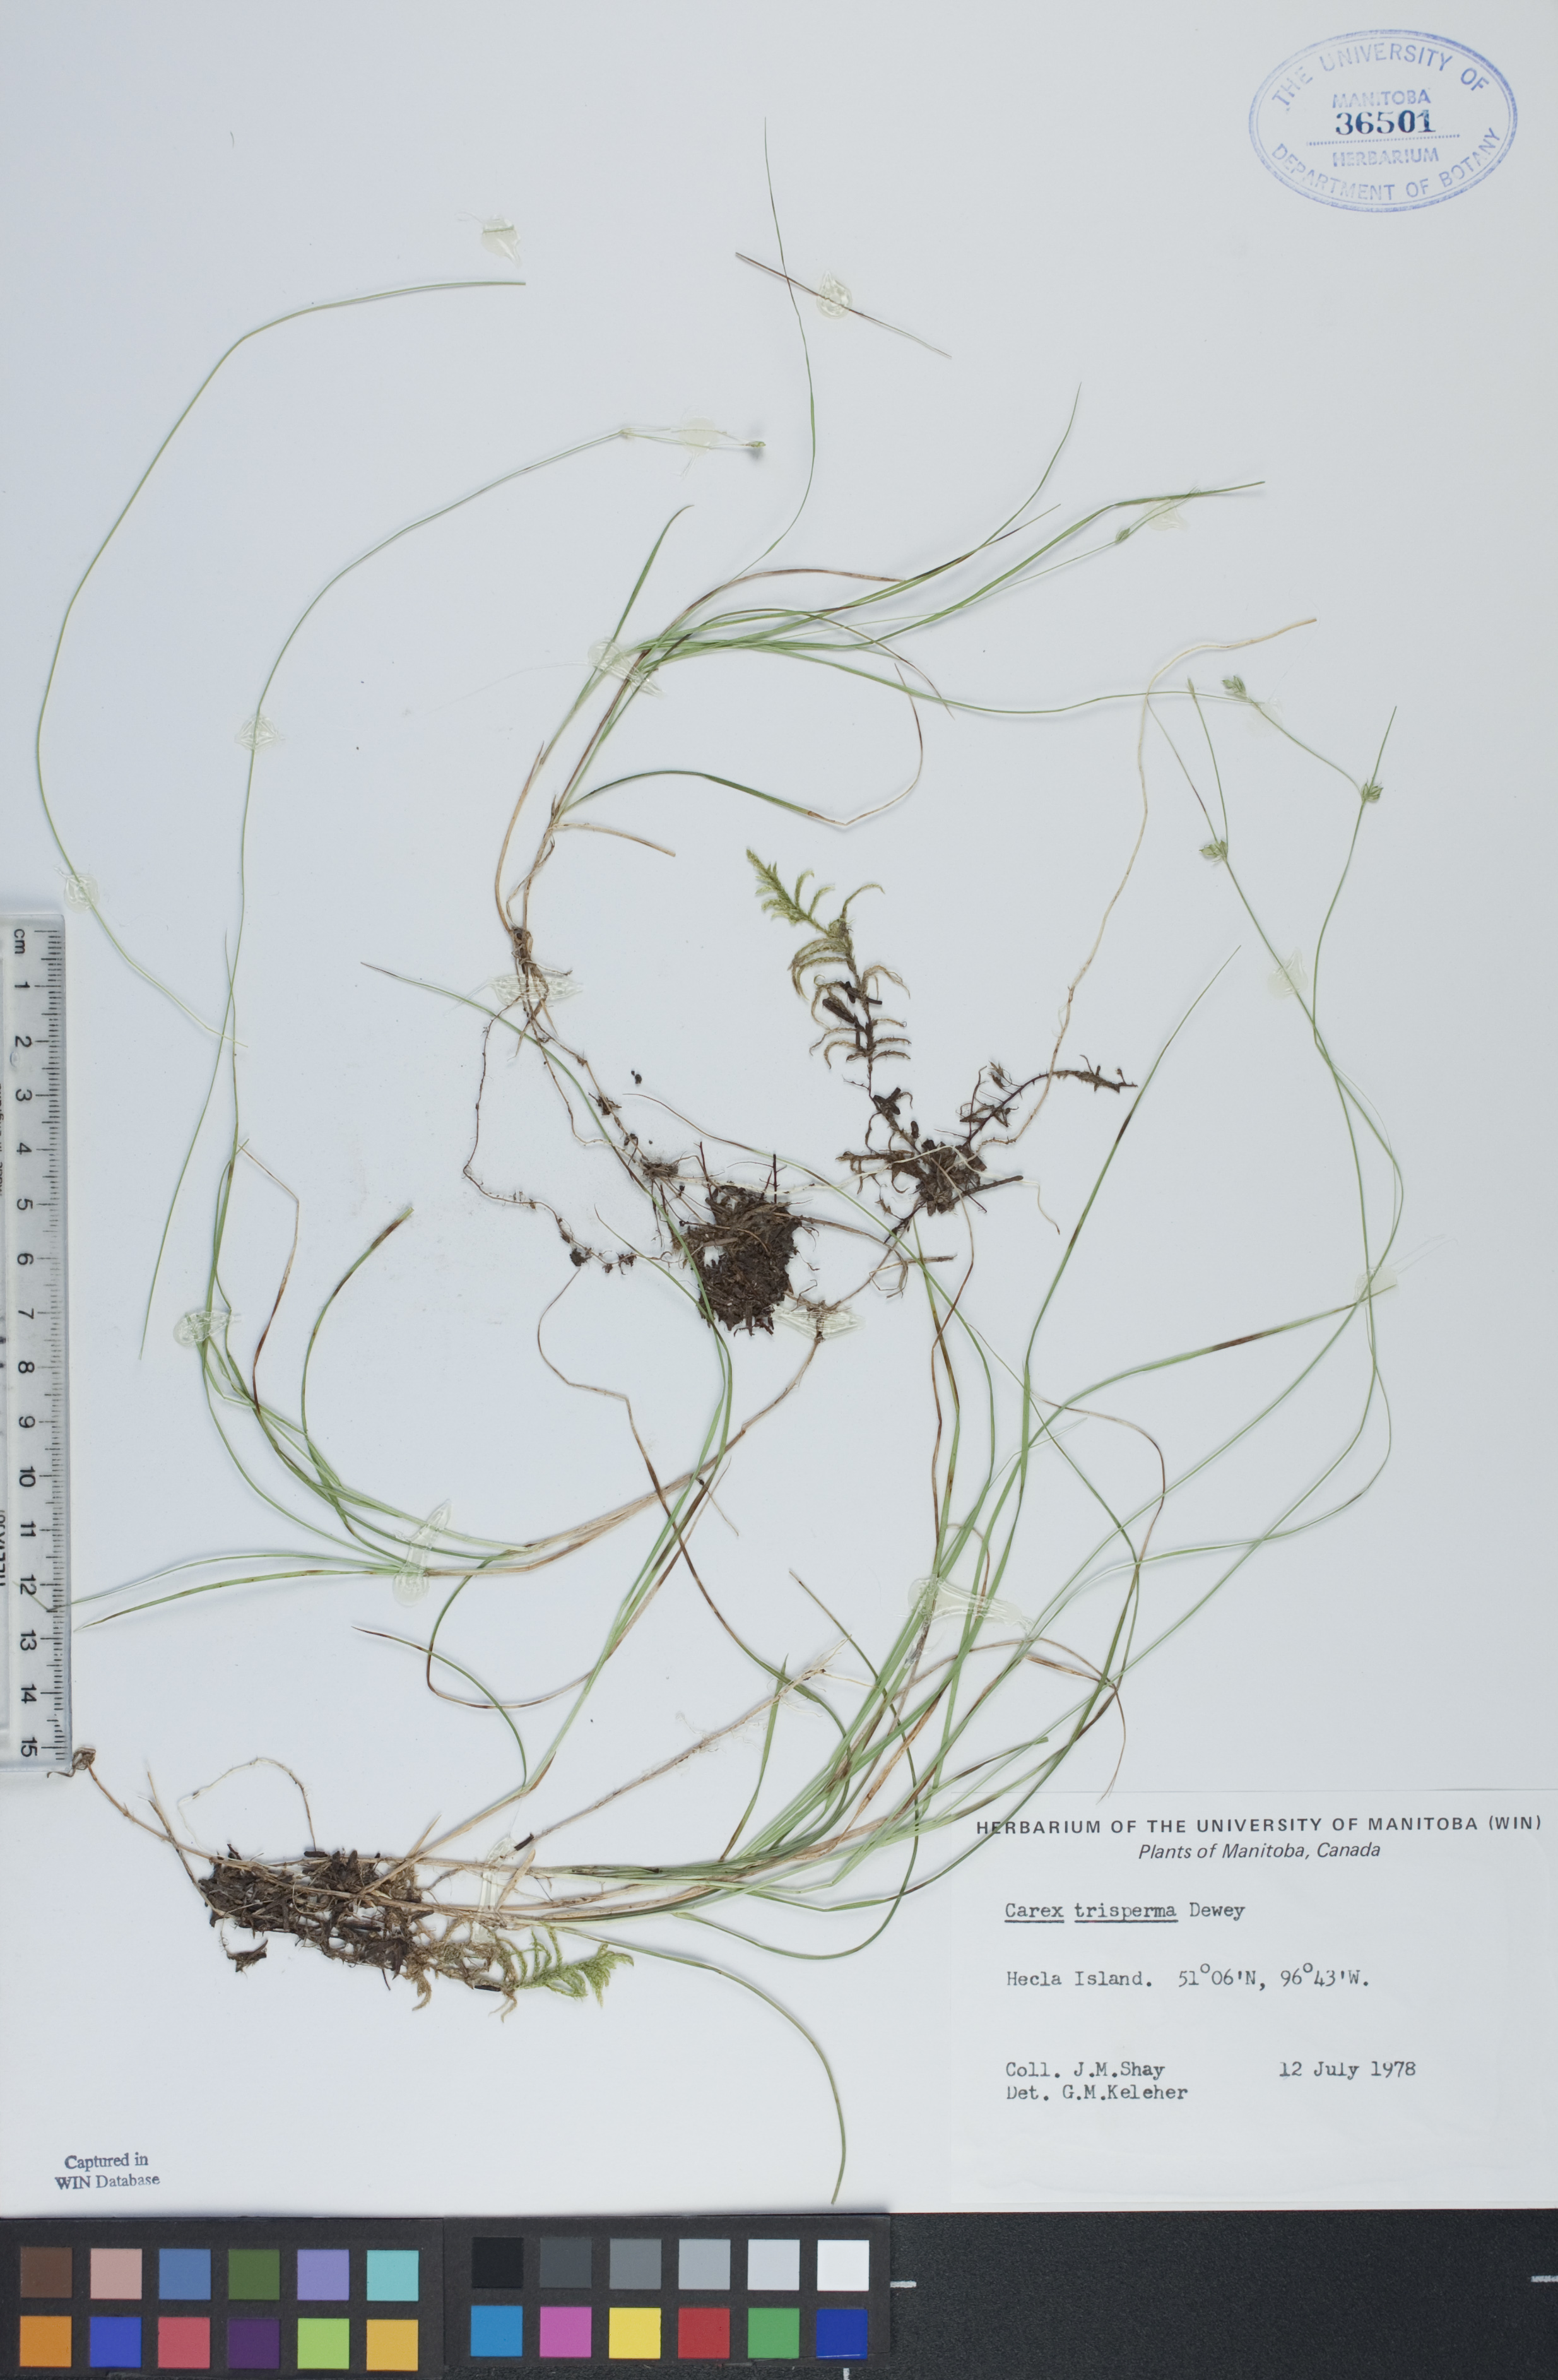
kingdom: Plantae
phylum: Tracheophyta
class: Liliopsida
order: Poales
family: Cyperaceae
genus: Carex
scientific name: Carex trisperma
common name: Three-seeded sedge
